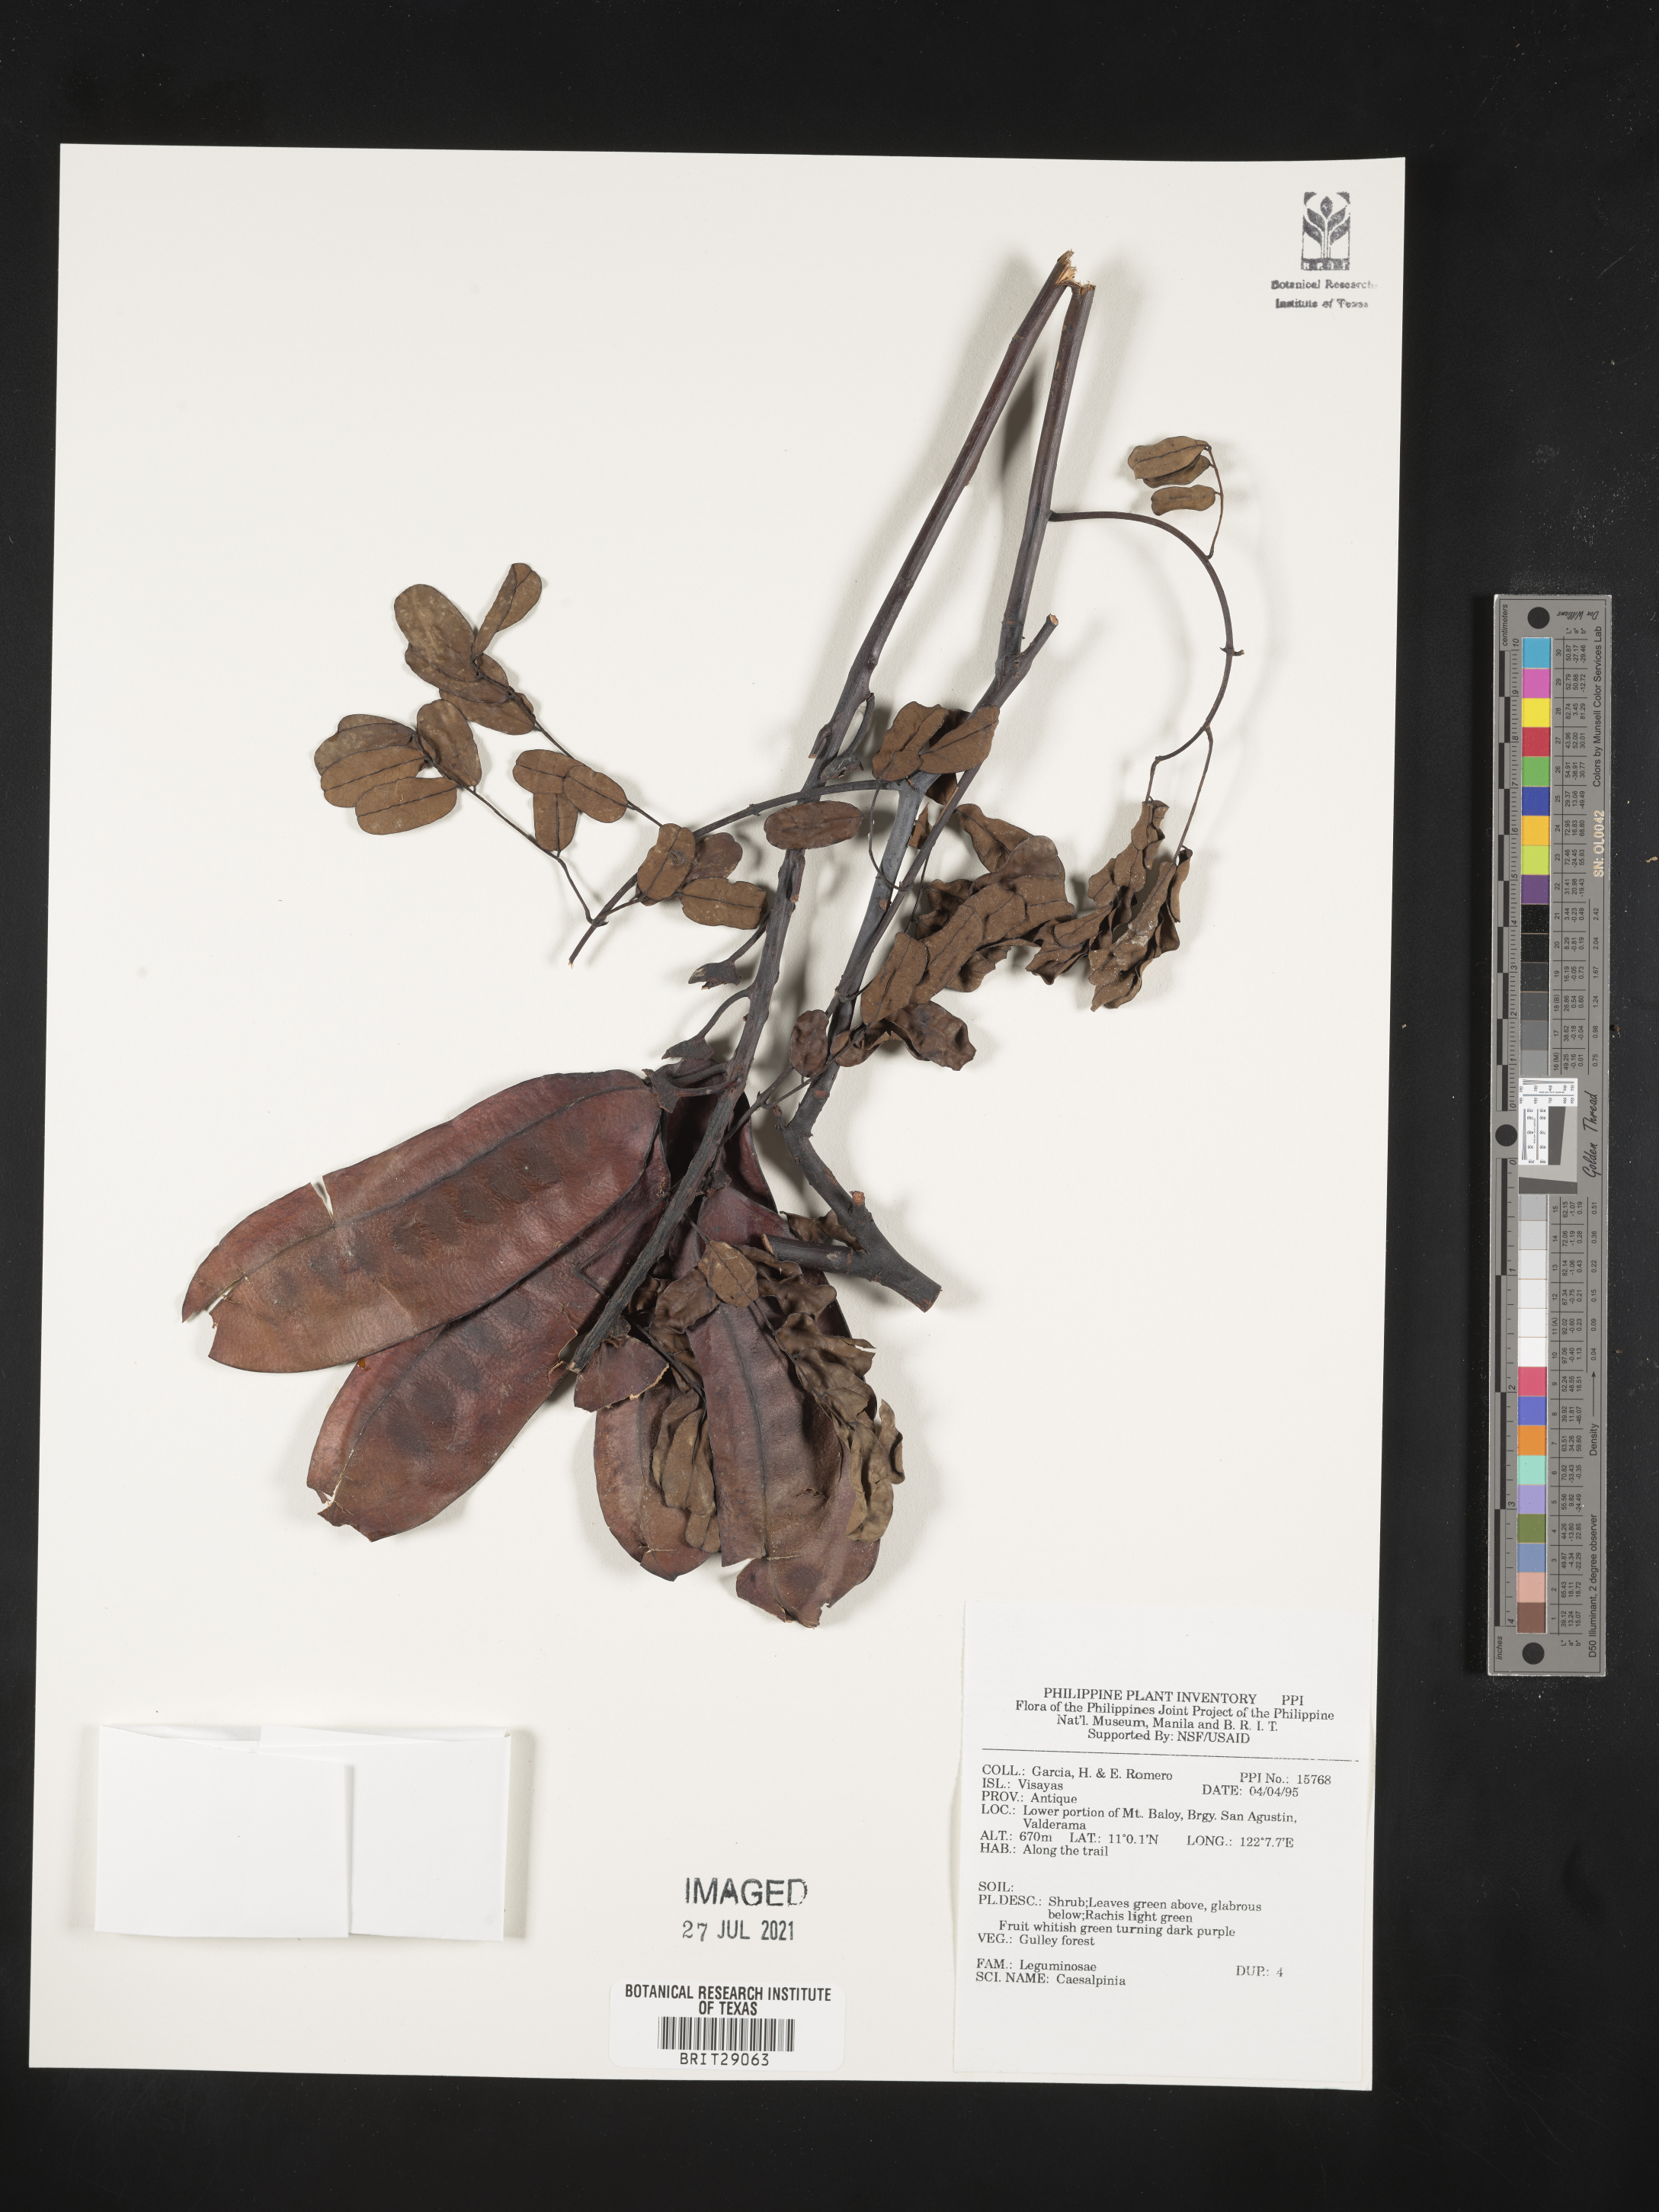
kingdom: Plantae
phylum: Tracheophyta
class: Magnoliopsida
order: Fabales
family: Fabaceae
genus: Caesalpinia
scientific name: Caesalpinia
